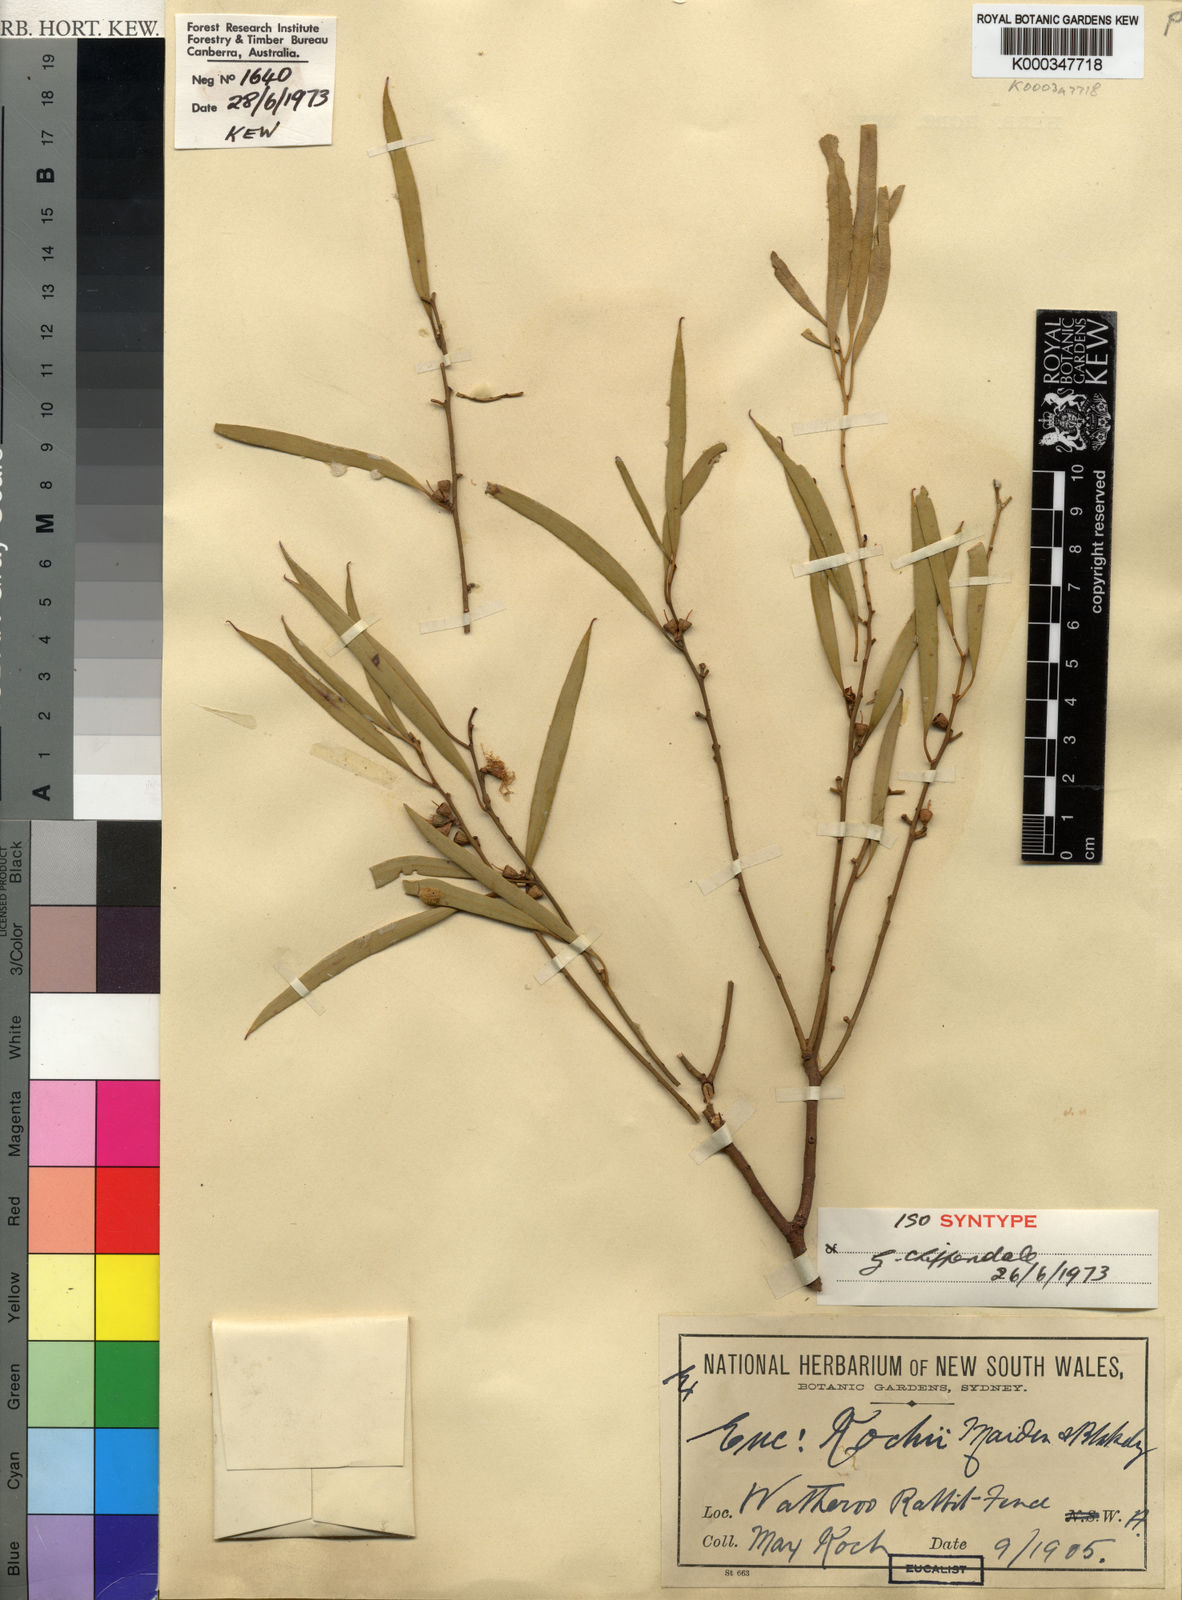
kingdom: Plantae
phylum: Tracheophyta
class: Magnoliopsida
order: Myrtales
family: Myrtaceae
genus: Eucalyptus
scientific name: Eucalyptus kochii
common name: Oil mallee
